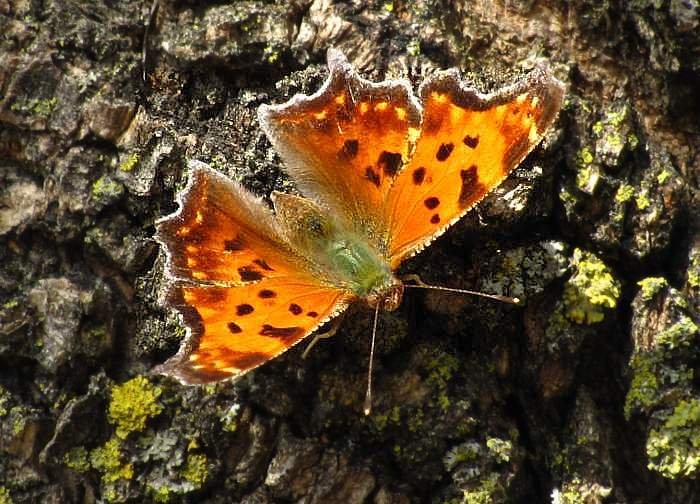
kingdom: Animalia
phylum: Arthropoda
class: Insecta
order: Lepidoptera
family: Nymphalidae
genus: Polygonia
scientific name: Polygonia comma
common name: Eastern Comma
